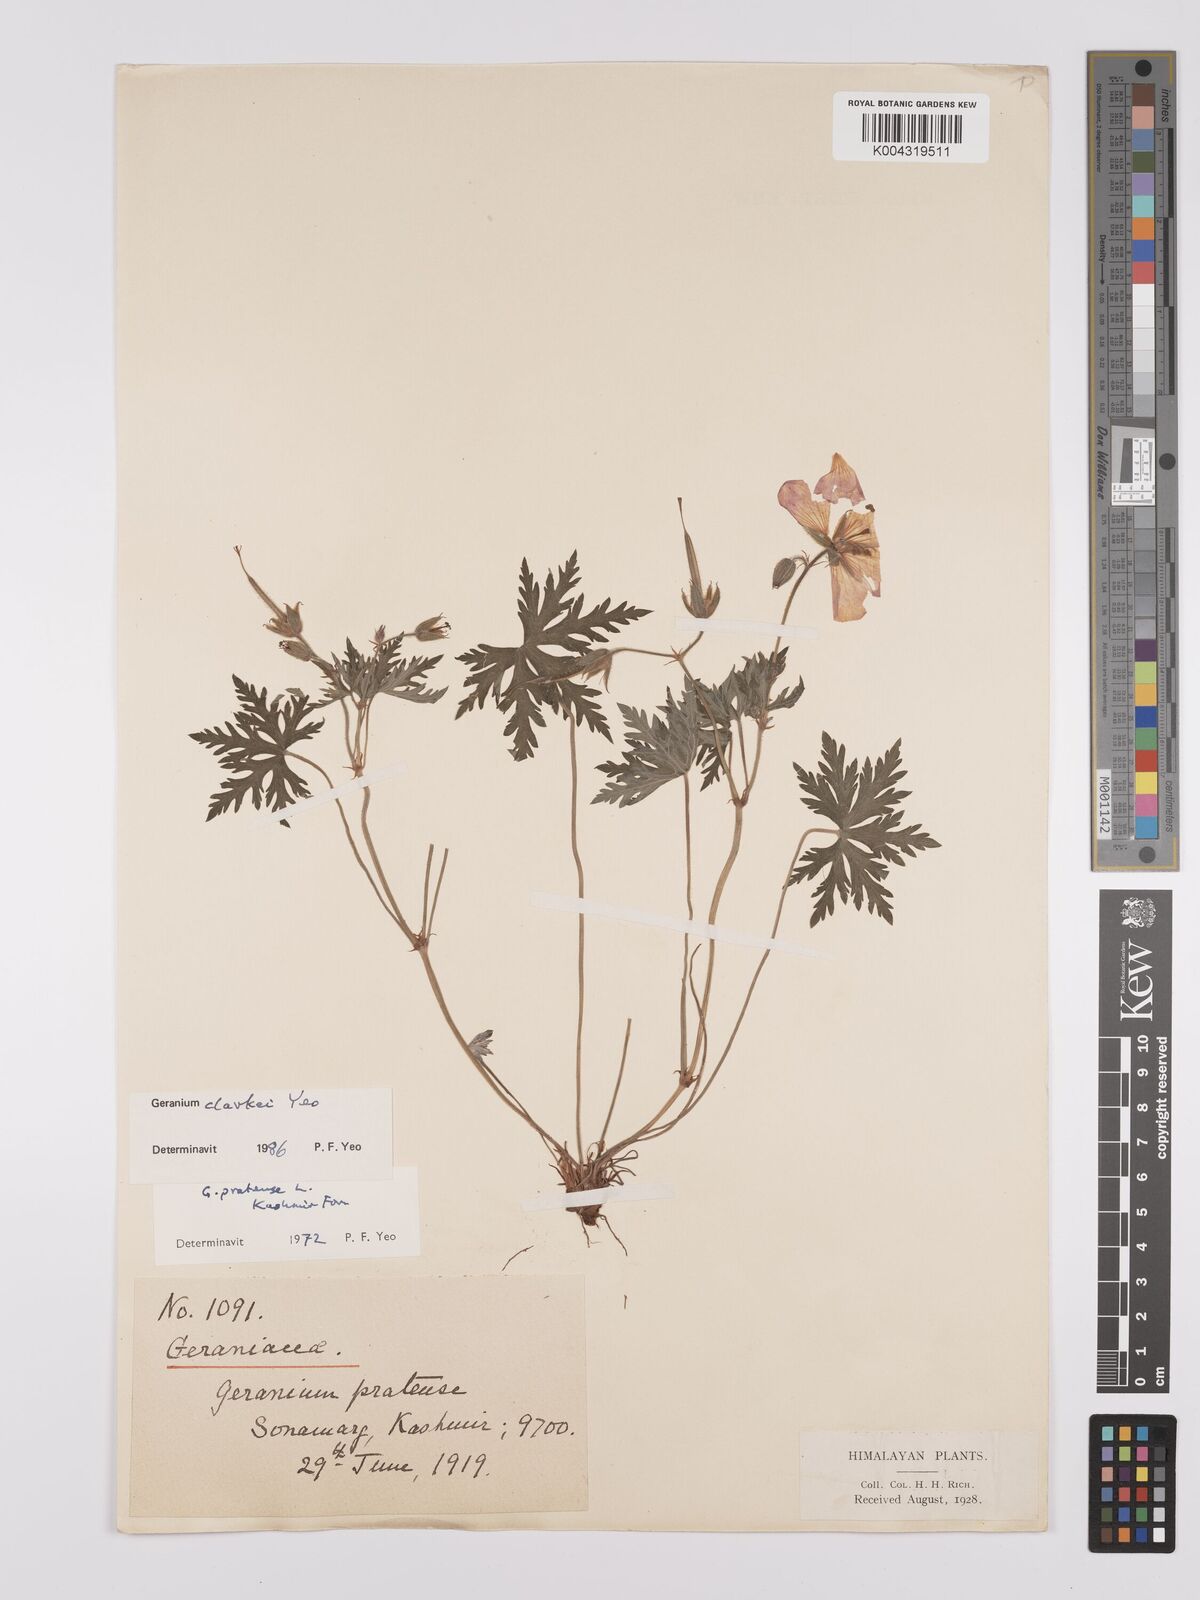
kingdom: Plantae
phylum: Tracheophyta
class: Magnoliopsida
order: Geraniales
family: Geraniaceae
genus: Geranium
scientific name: Geranium clarkei
